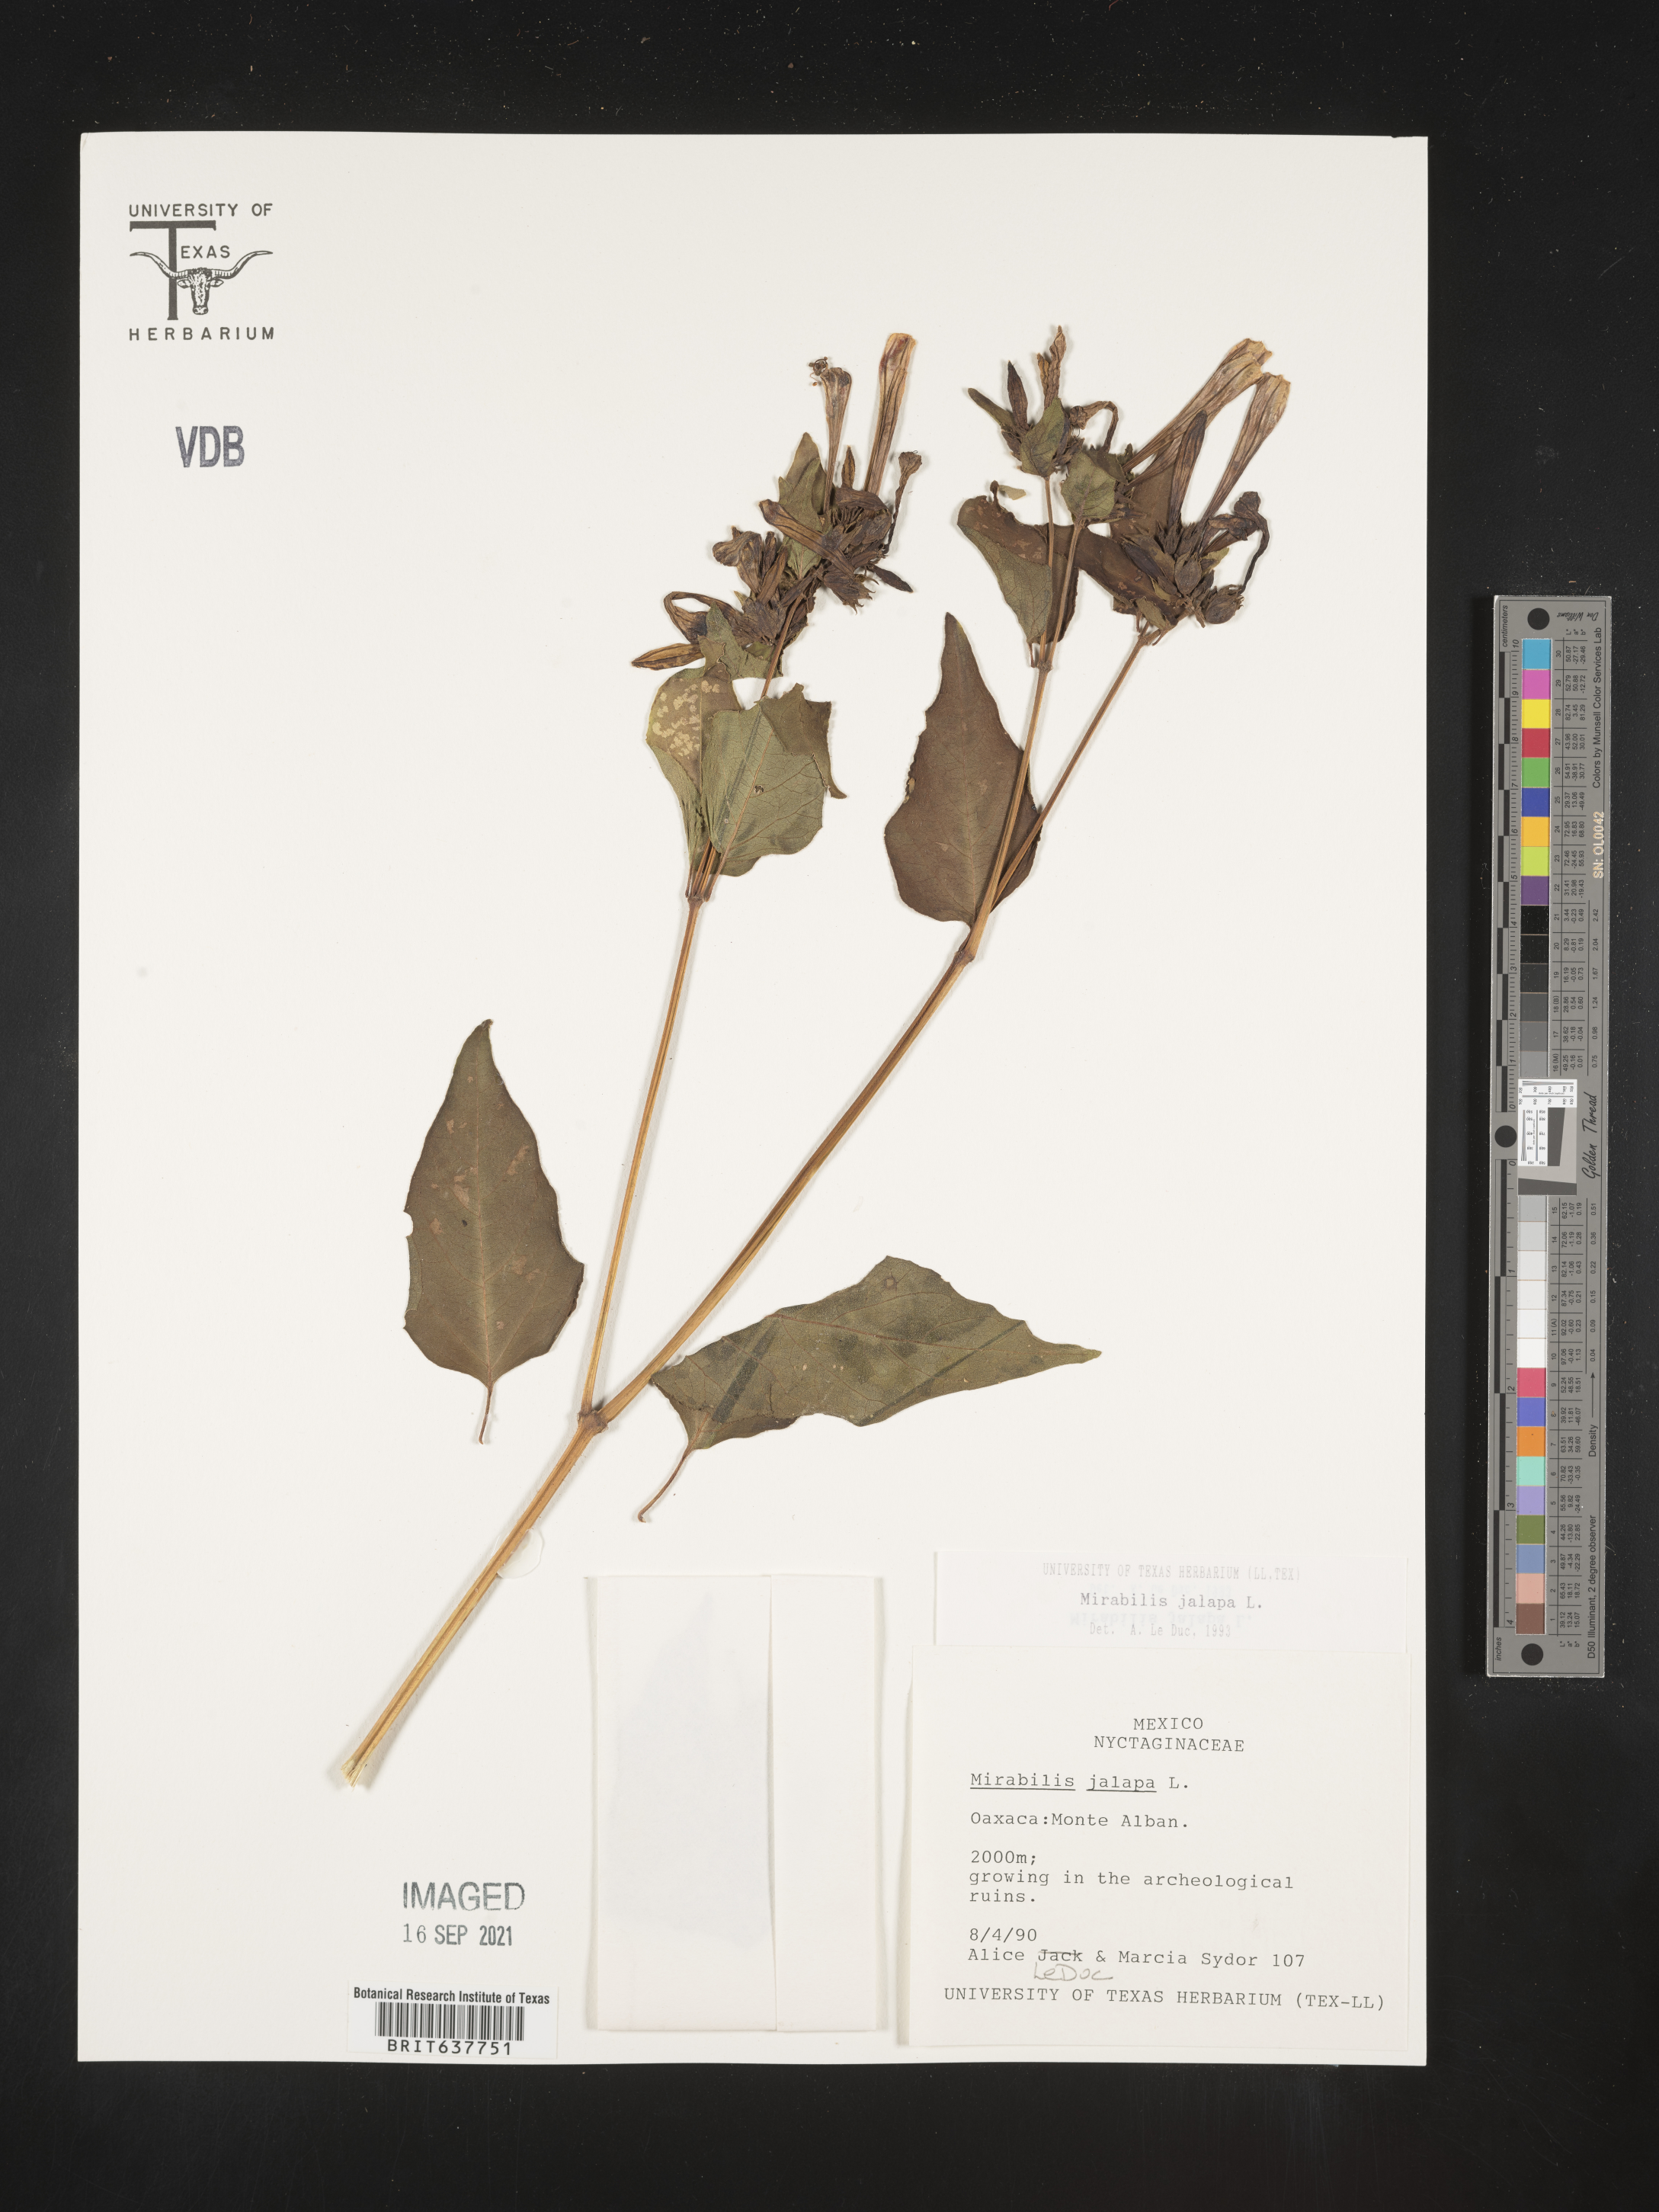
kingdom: Plantae
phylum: Tracheophyta
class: Magnoliopsida
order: Caryophyllales
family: Nyctaginaceae
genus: Mirabilis
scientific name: Mirabilis
